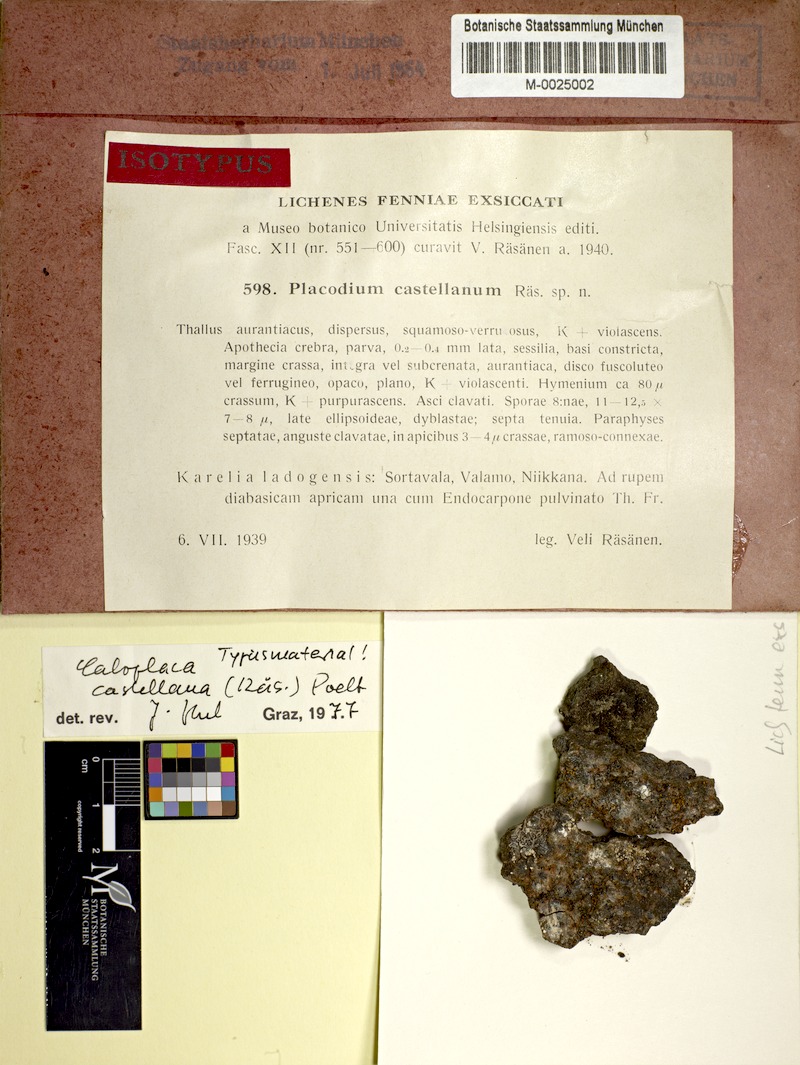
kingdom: Fungi
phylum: Ascomycota
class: Lecanoromycetes
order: Teloschistales
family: Teloschistaceae
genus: Pachypeltis
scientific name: Pachypeltis castellana
